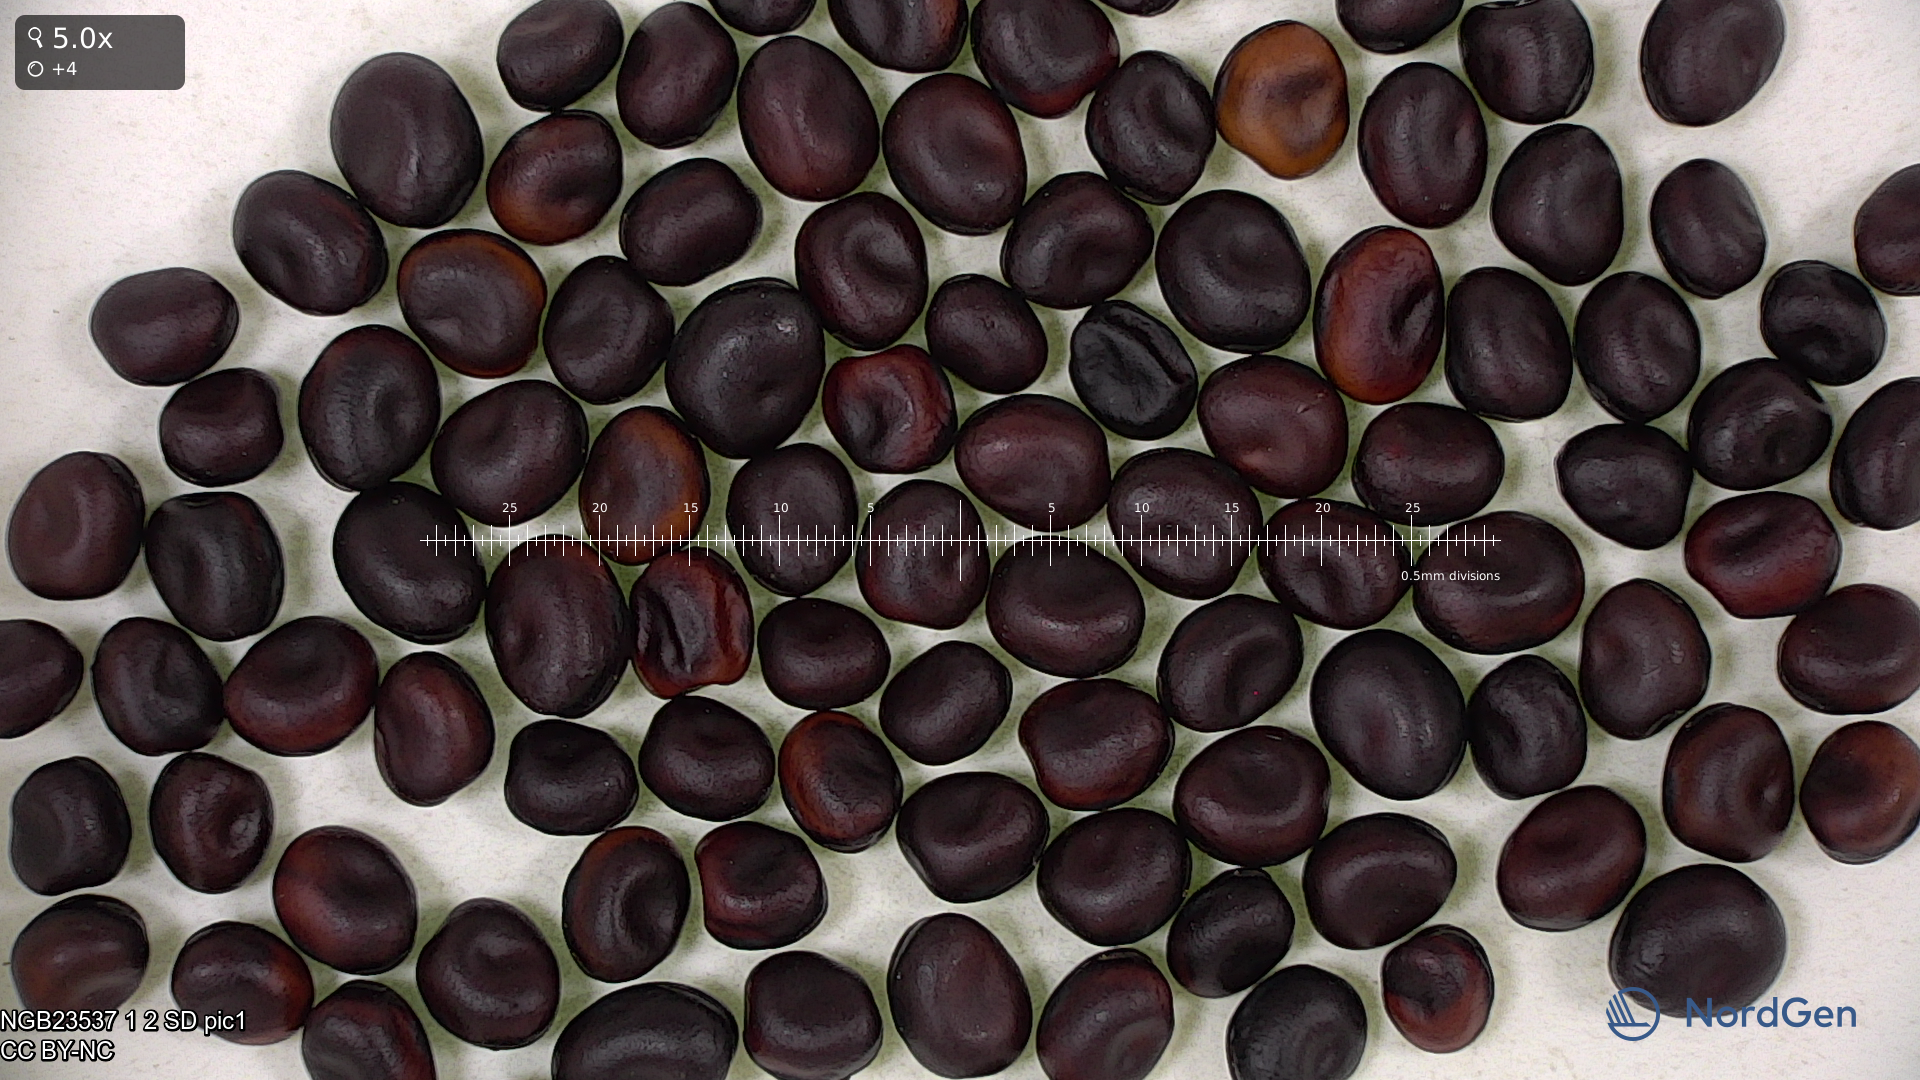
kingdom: Plantae
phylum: Tracheophyta
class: Magnoliopsida
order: Fabales
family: Fabaceae
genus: Vicia
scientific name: Vicia faba
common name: Broad bean
